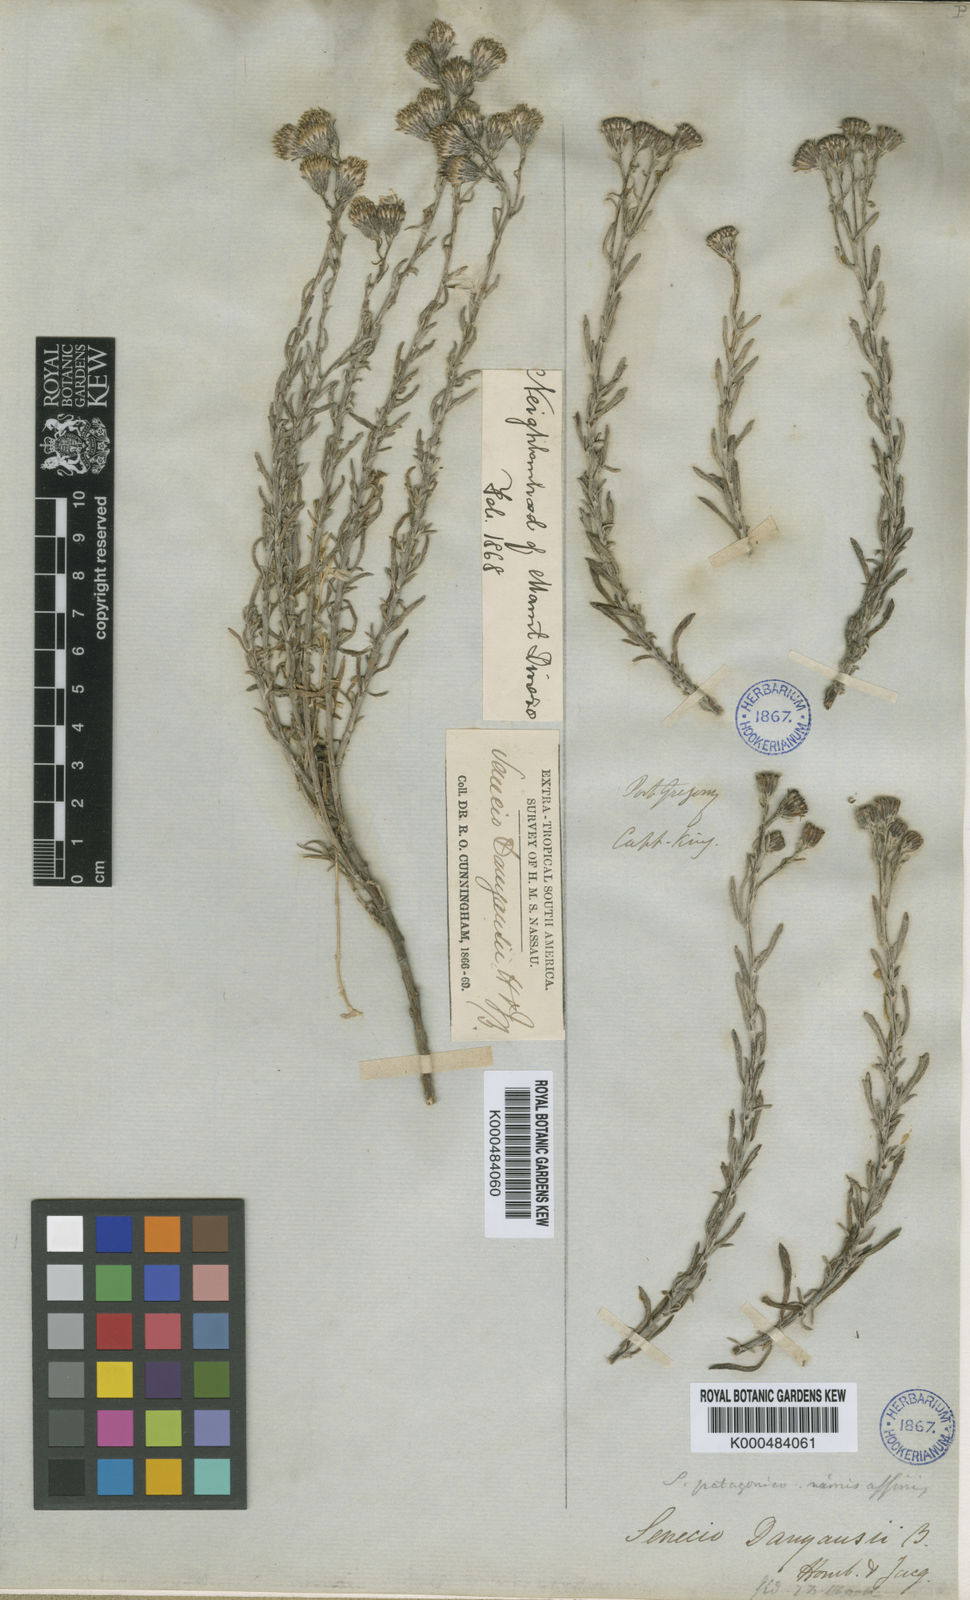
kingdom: Plantae
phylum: Tracheophyta
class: Magnoliopsida
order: Asterales
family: Asteraceae
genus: Senecio
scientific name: Senecio
